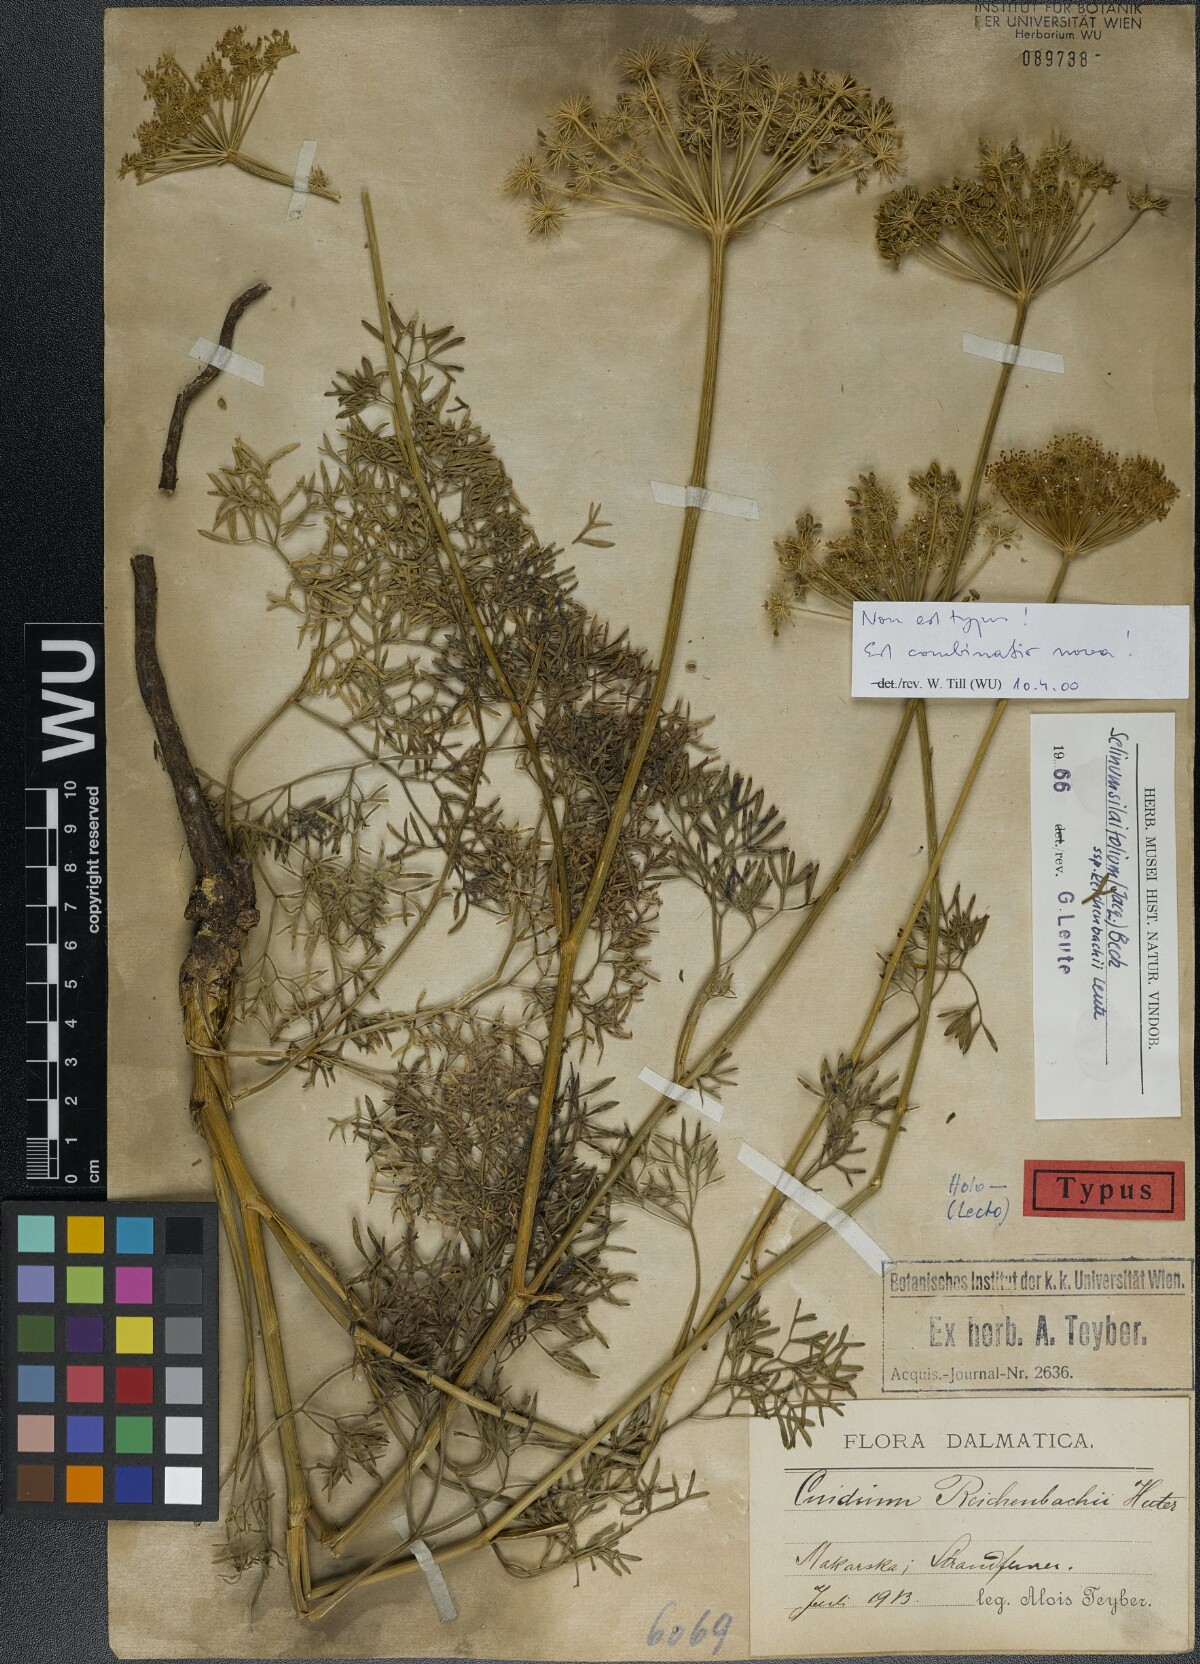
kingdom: Plantae
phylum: Tracheophyta
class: Magnoliopsida
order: Apiales
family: Apiaceae
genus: Katapsuxis
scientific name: Katapsuxis silaifolia
